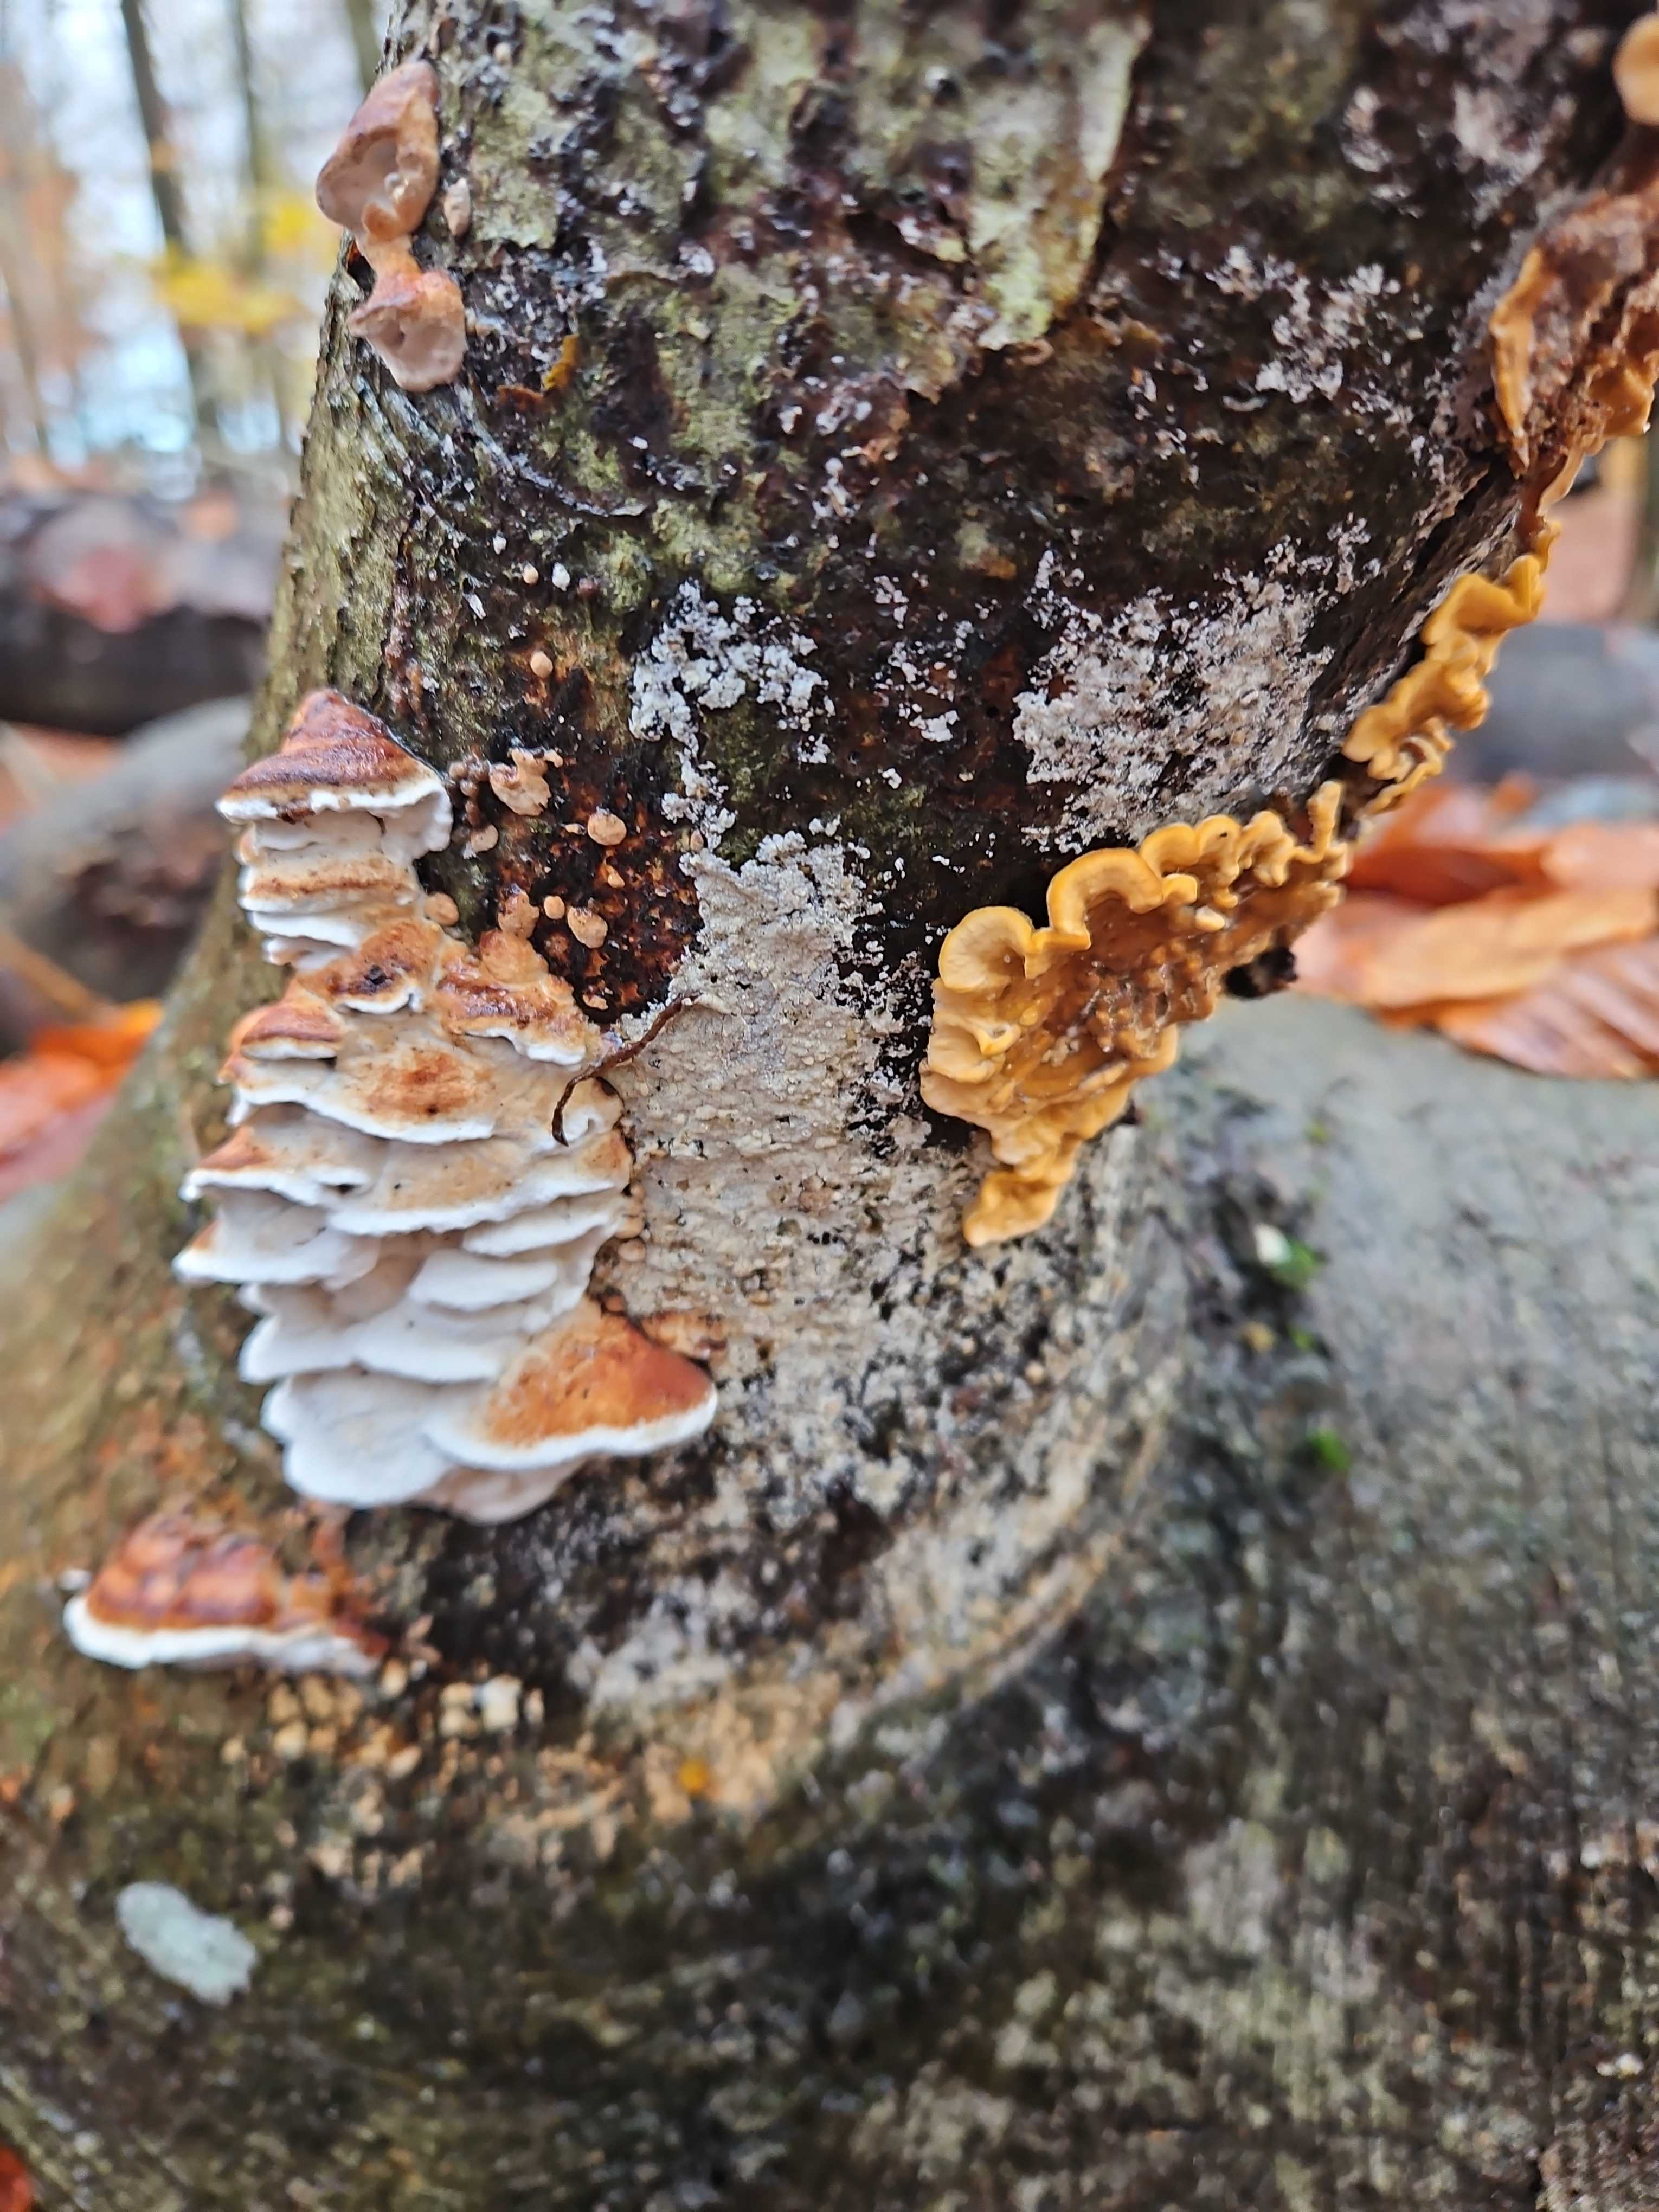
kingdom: Fungi
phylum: Basidiomycota
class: Agaricomycetes
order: Russulales
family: Stereaceae
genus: Stereum
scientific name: Stereum hirsutum
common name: håret lædersvamp
